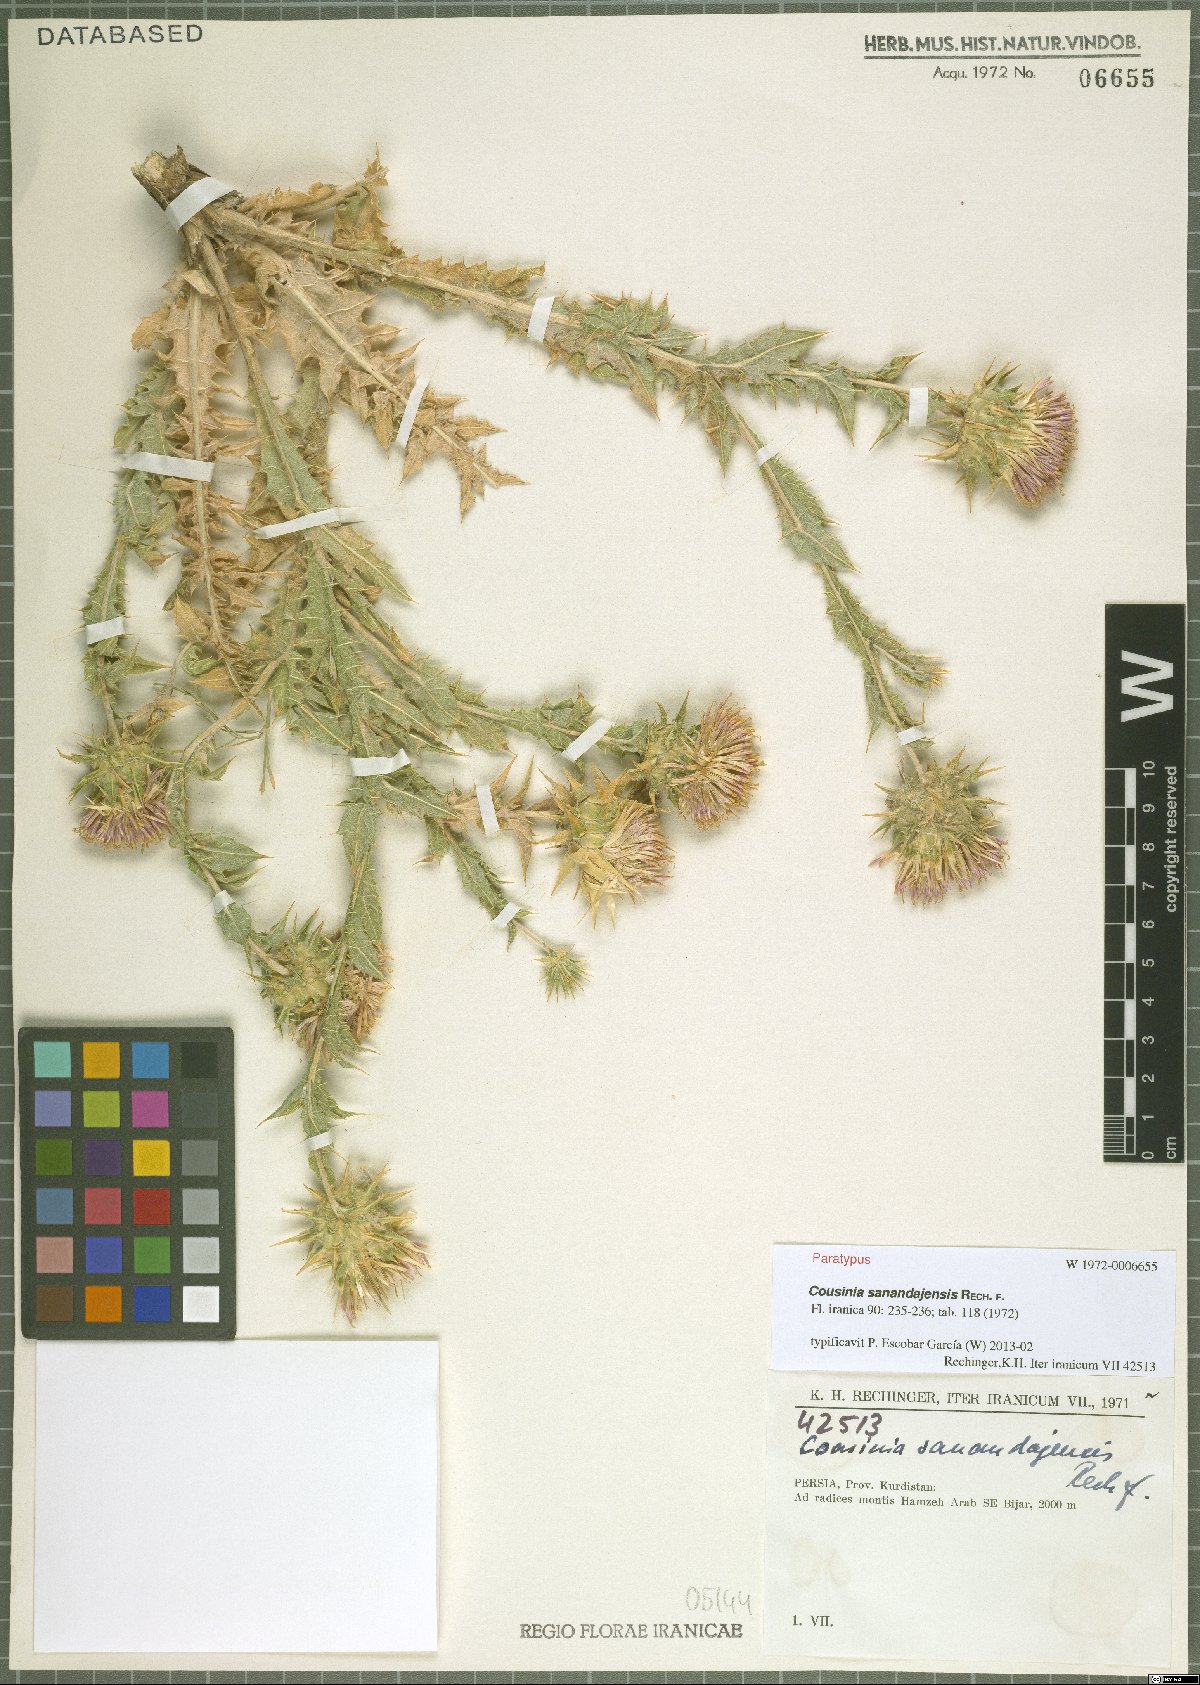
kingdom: Plantae
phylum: Tracheophyta
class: Magnoliopsida
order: Asterales
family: Asteraceae
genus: Cousinia
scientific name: Cousinia sanandajensis
